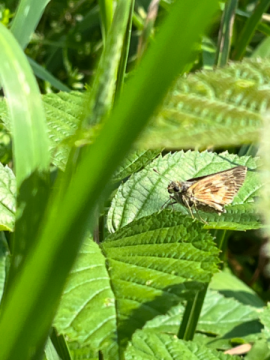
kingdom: Animalia
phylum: Arthropoda
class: Insecta
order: Lepidoptera
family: Hesperiidae
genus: Polites
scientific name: Polites
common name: Long Dash Skipper
